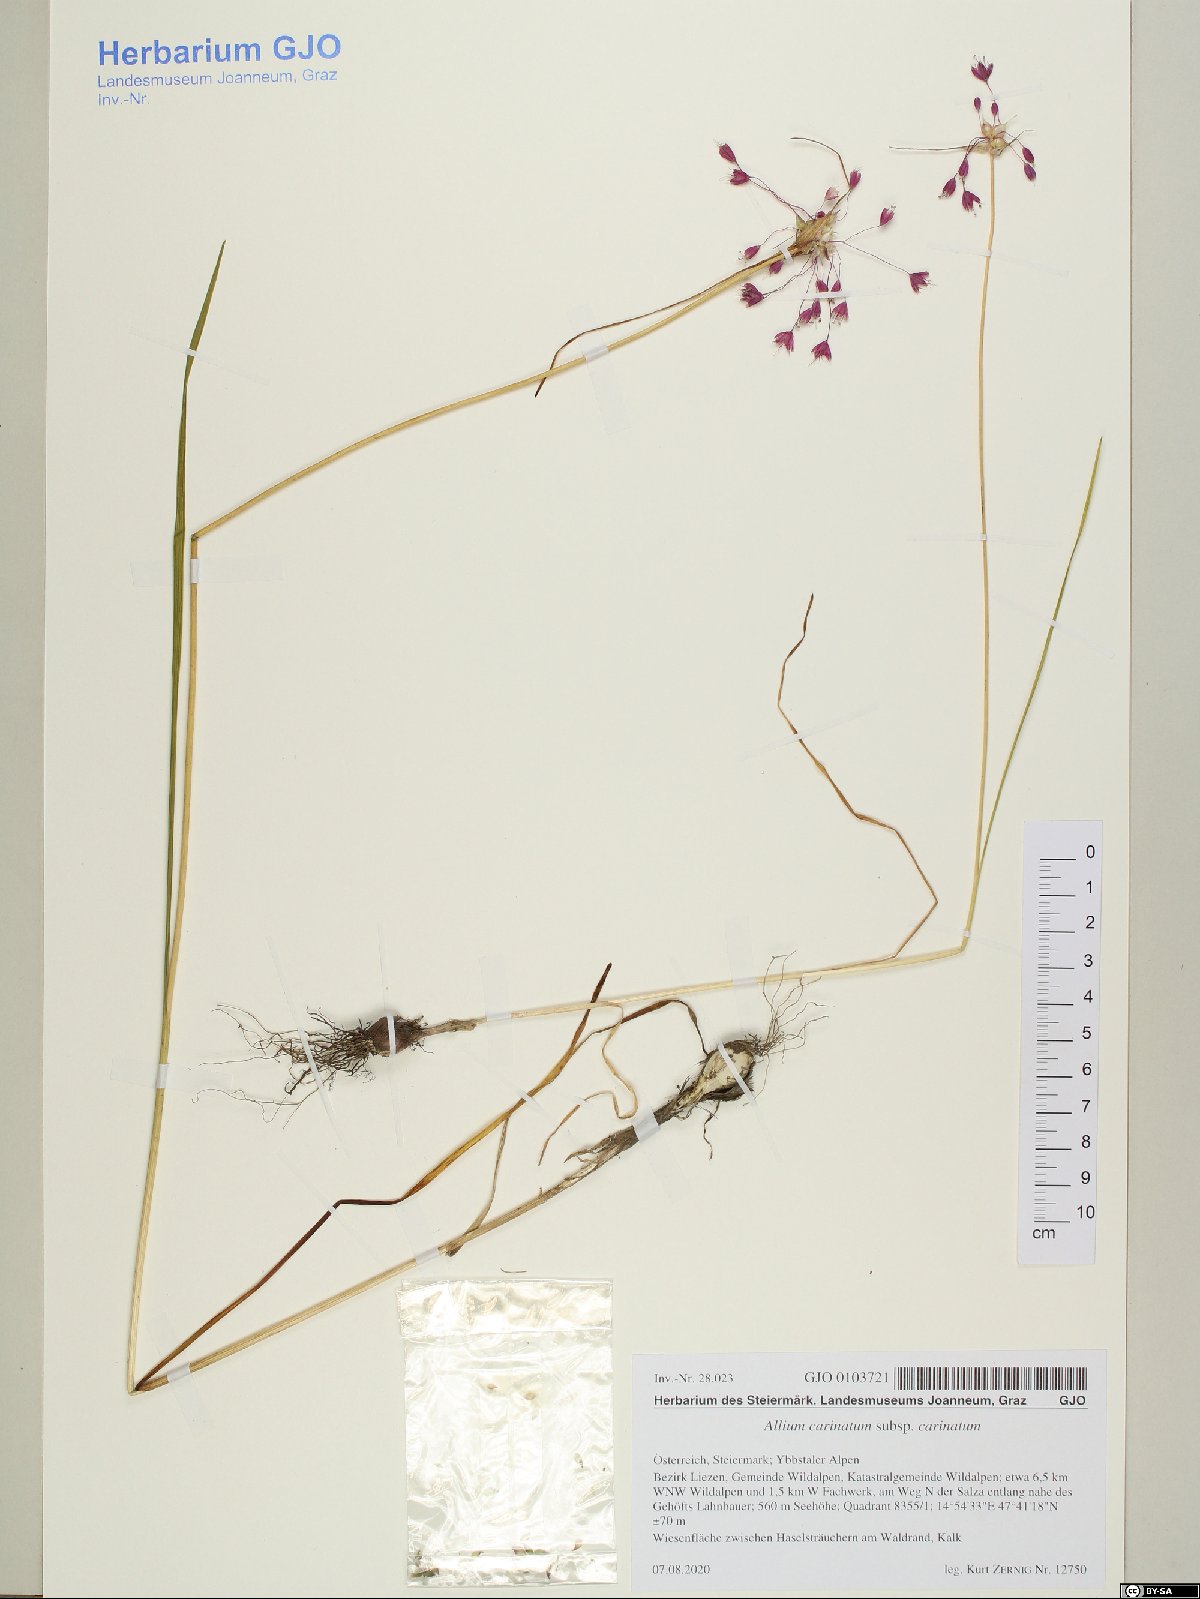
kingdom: Plantae
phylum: Tracheophyta
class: Liliopsida
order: Asparagales
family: Amaryllidaceae
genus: Allium
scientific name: Allium carinatum
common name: Keeled garlic
